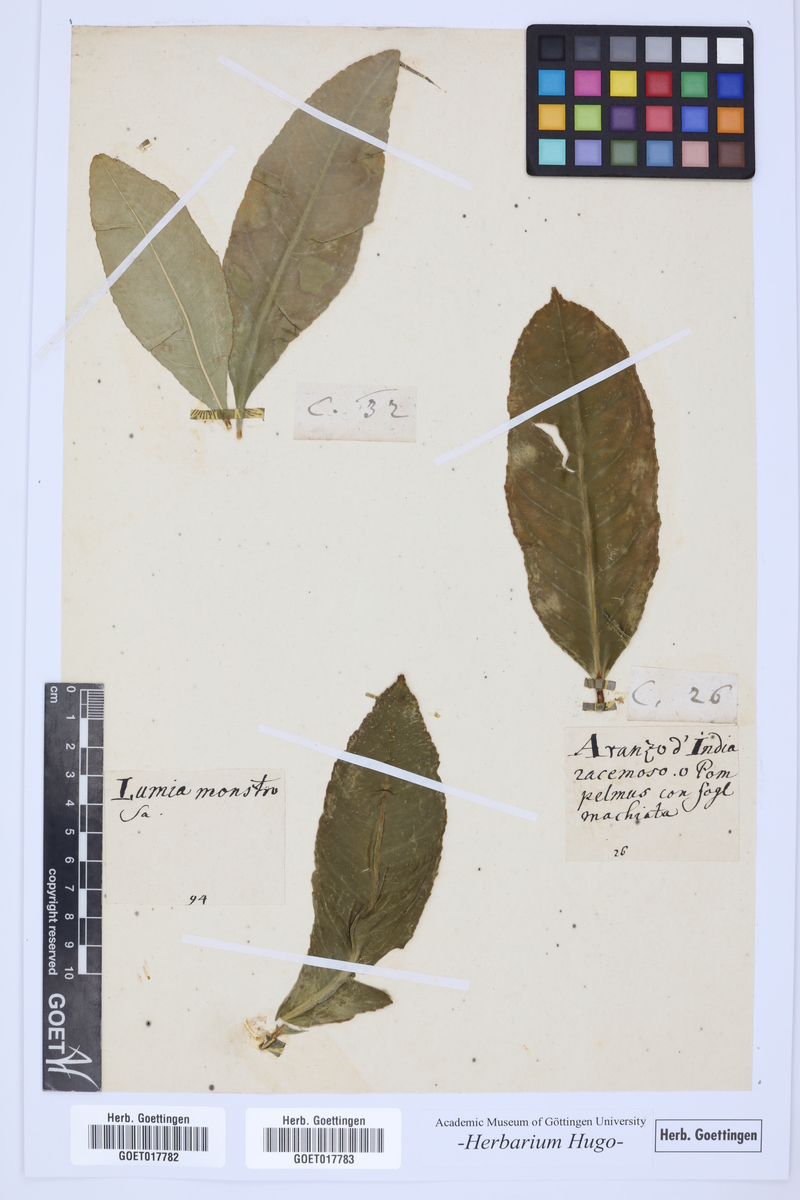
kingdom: Plantae
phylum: Tracheophyta
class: Magnoliopsida
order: Sapindales
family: Rutaceae
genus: Citrus
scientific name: Citrus
